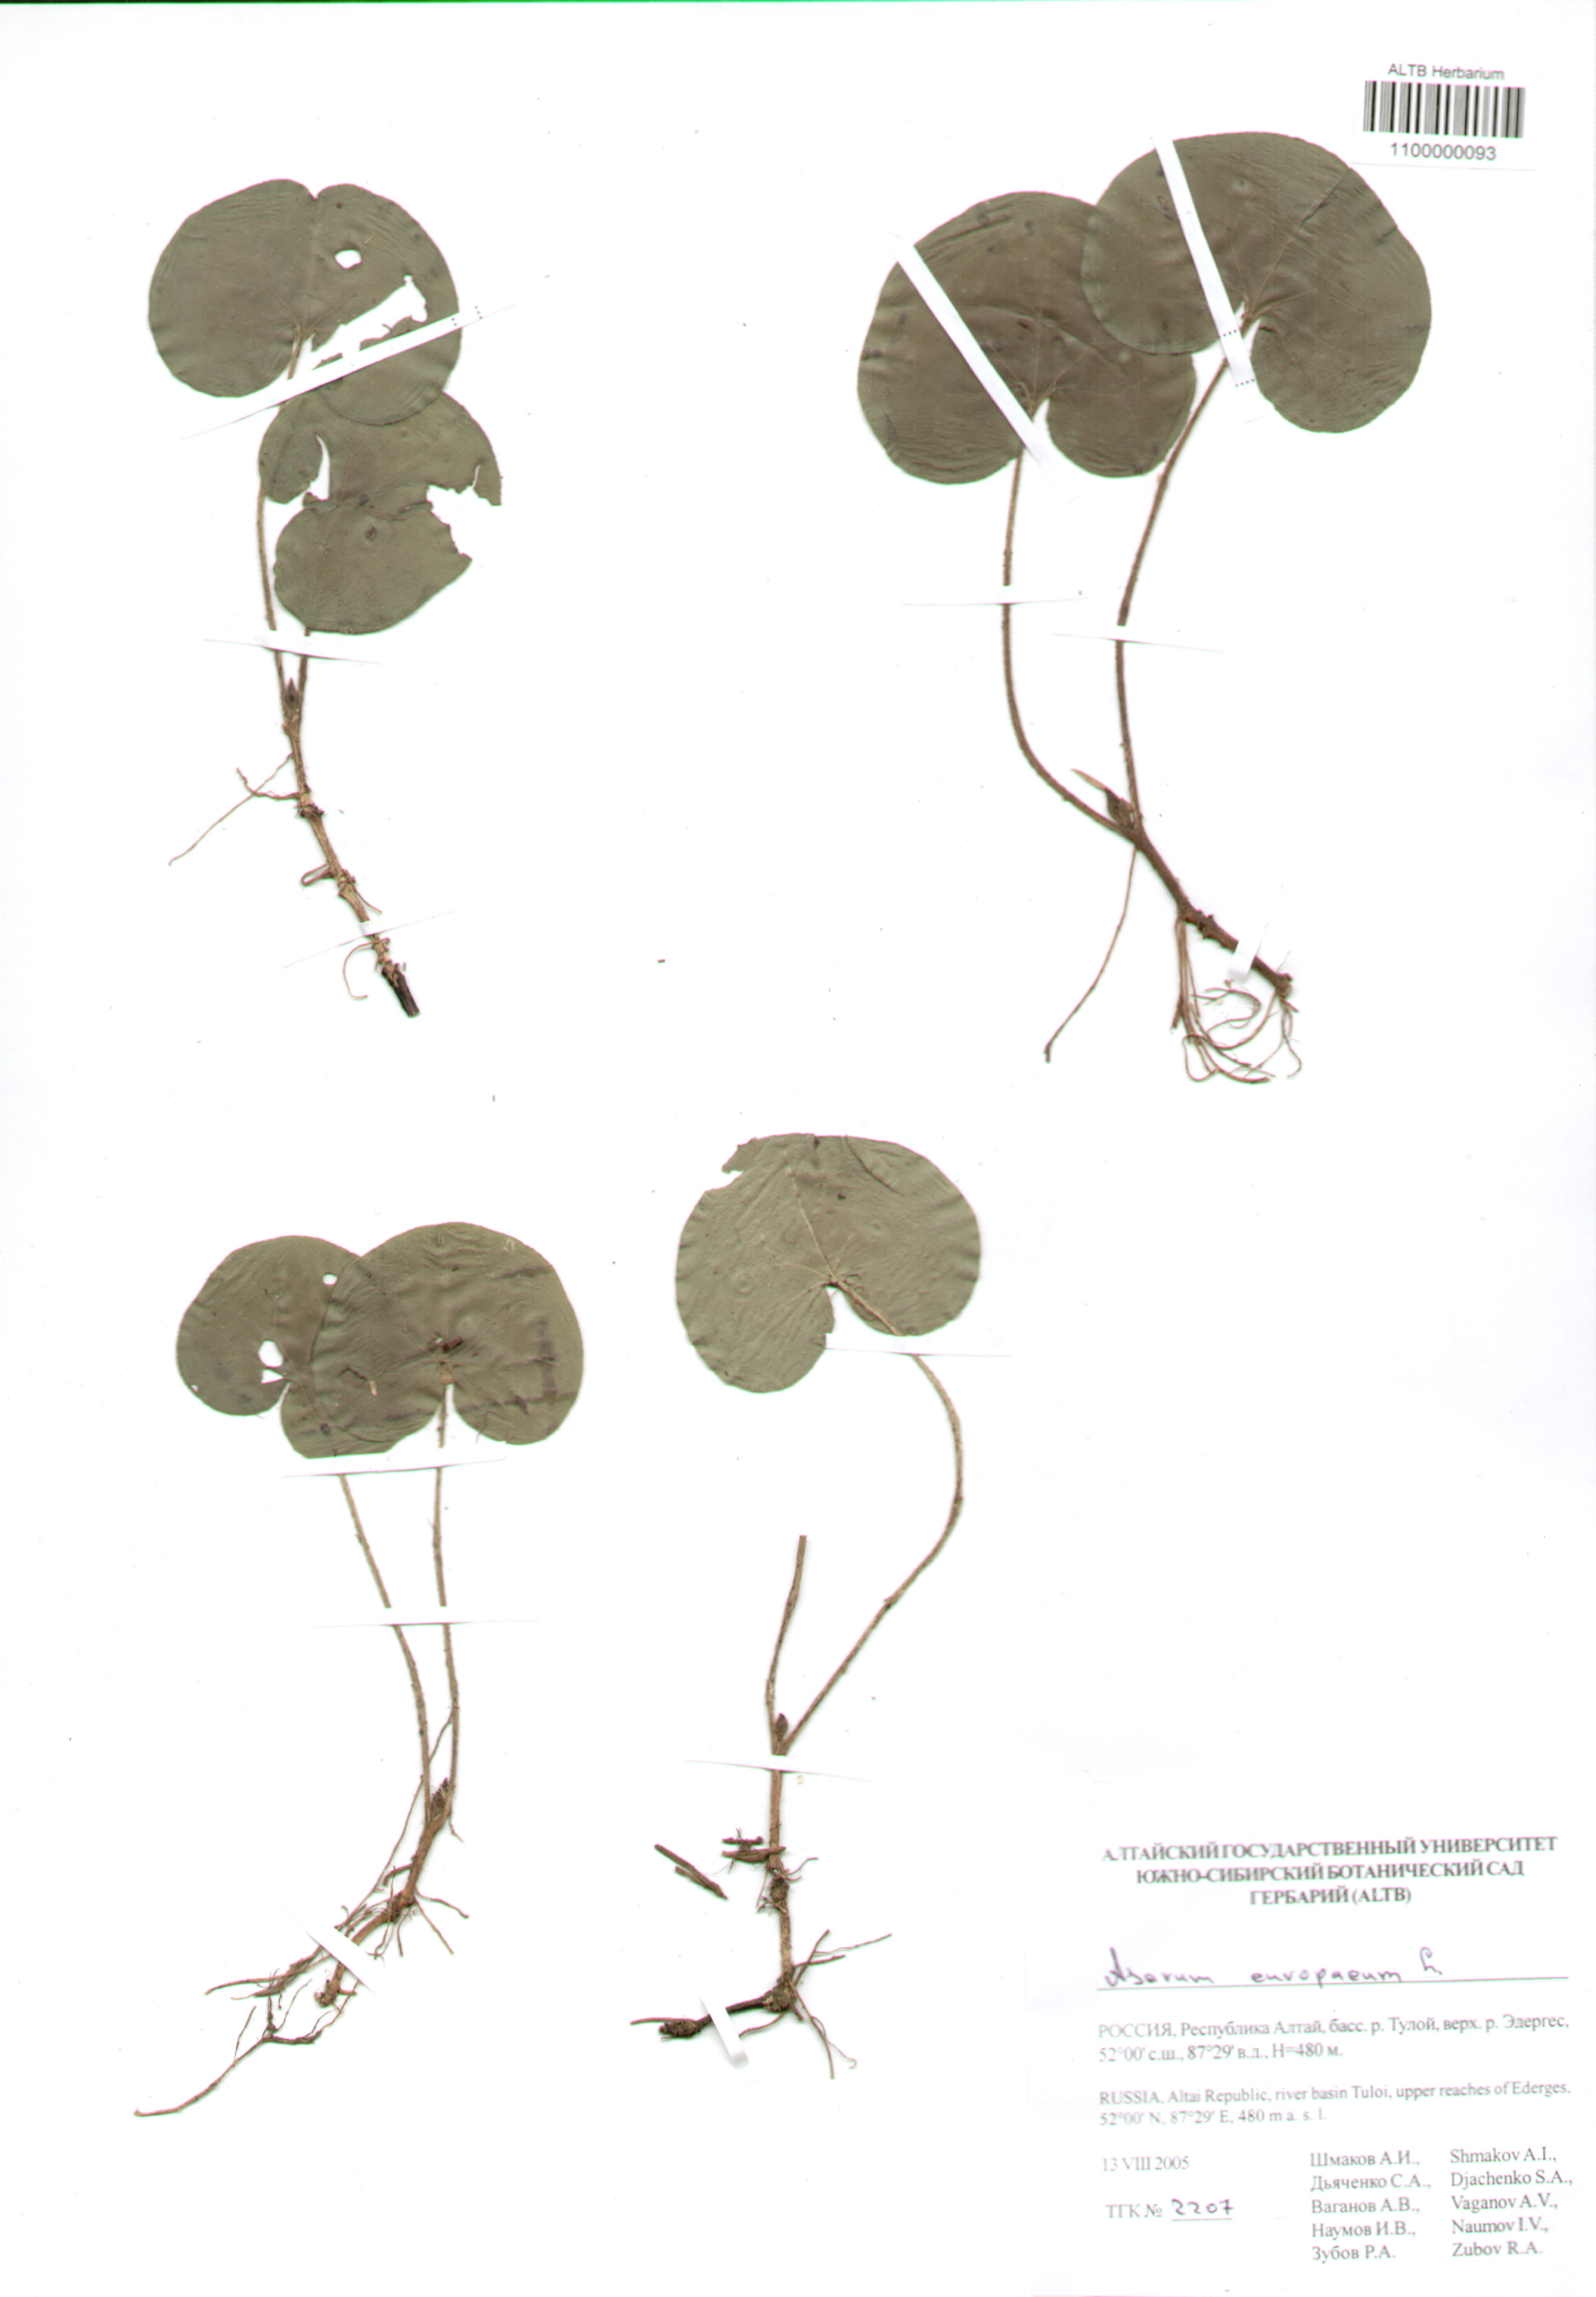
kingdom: Plantae
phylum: Tracheophyta
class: Magnoliopsida
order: Piperales
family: Aristolochiaceae
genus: Asarum
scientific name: Asarum europaeum
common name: Asarabacca
